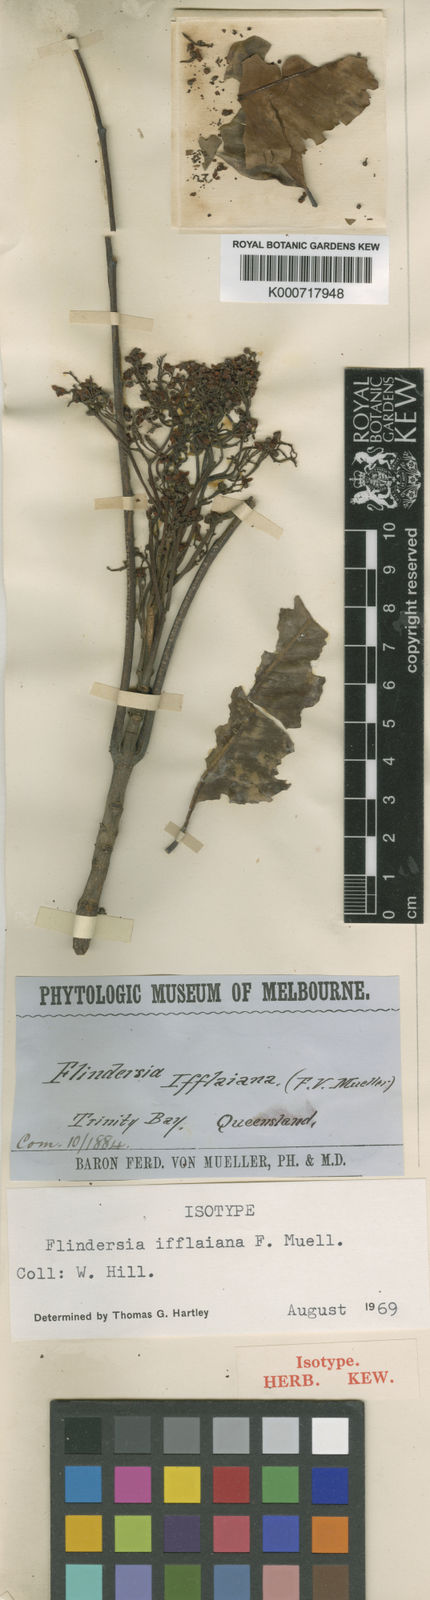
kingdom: Plantae
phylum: Tracheophyta
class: Magnoliopsida
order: Sapindales
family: Rutaceae
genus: Flindersia
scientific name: Flindersia
